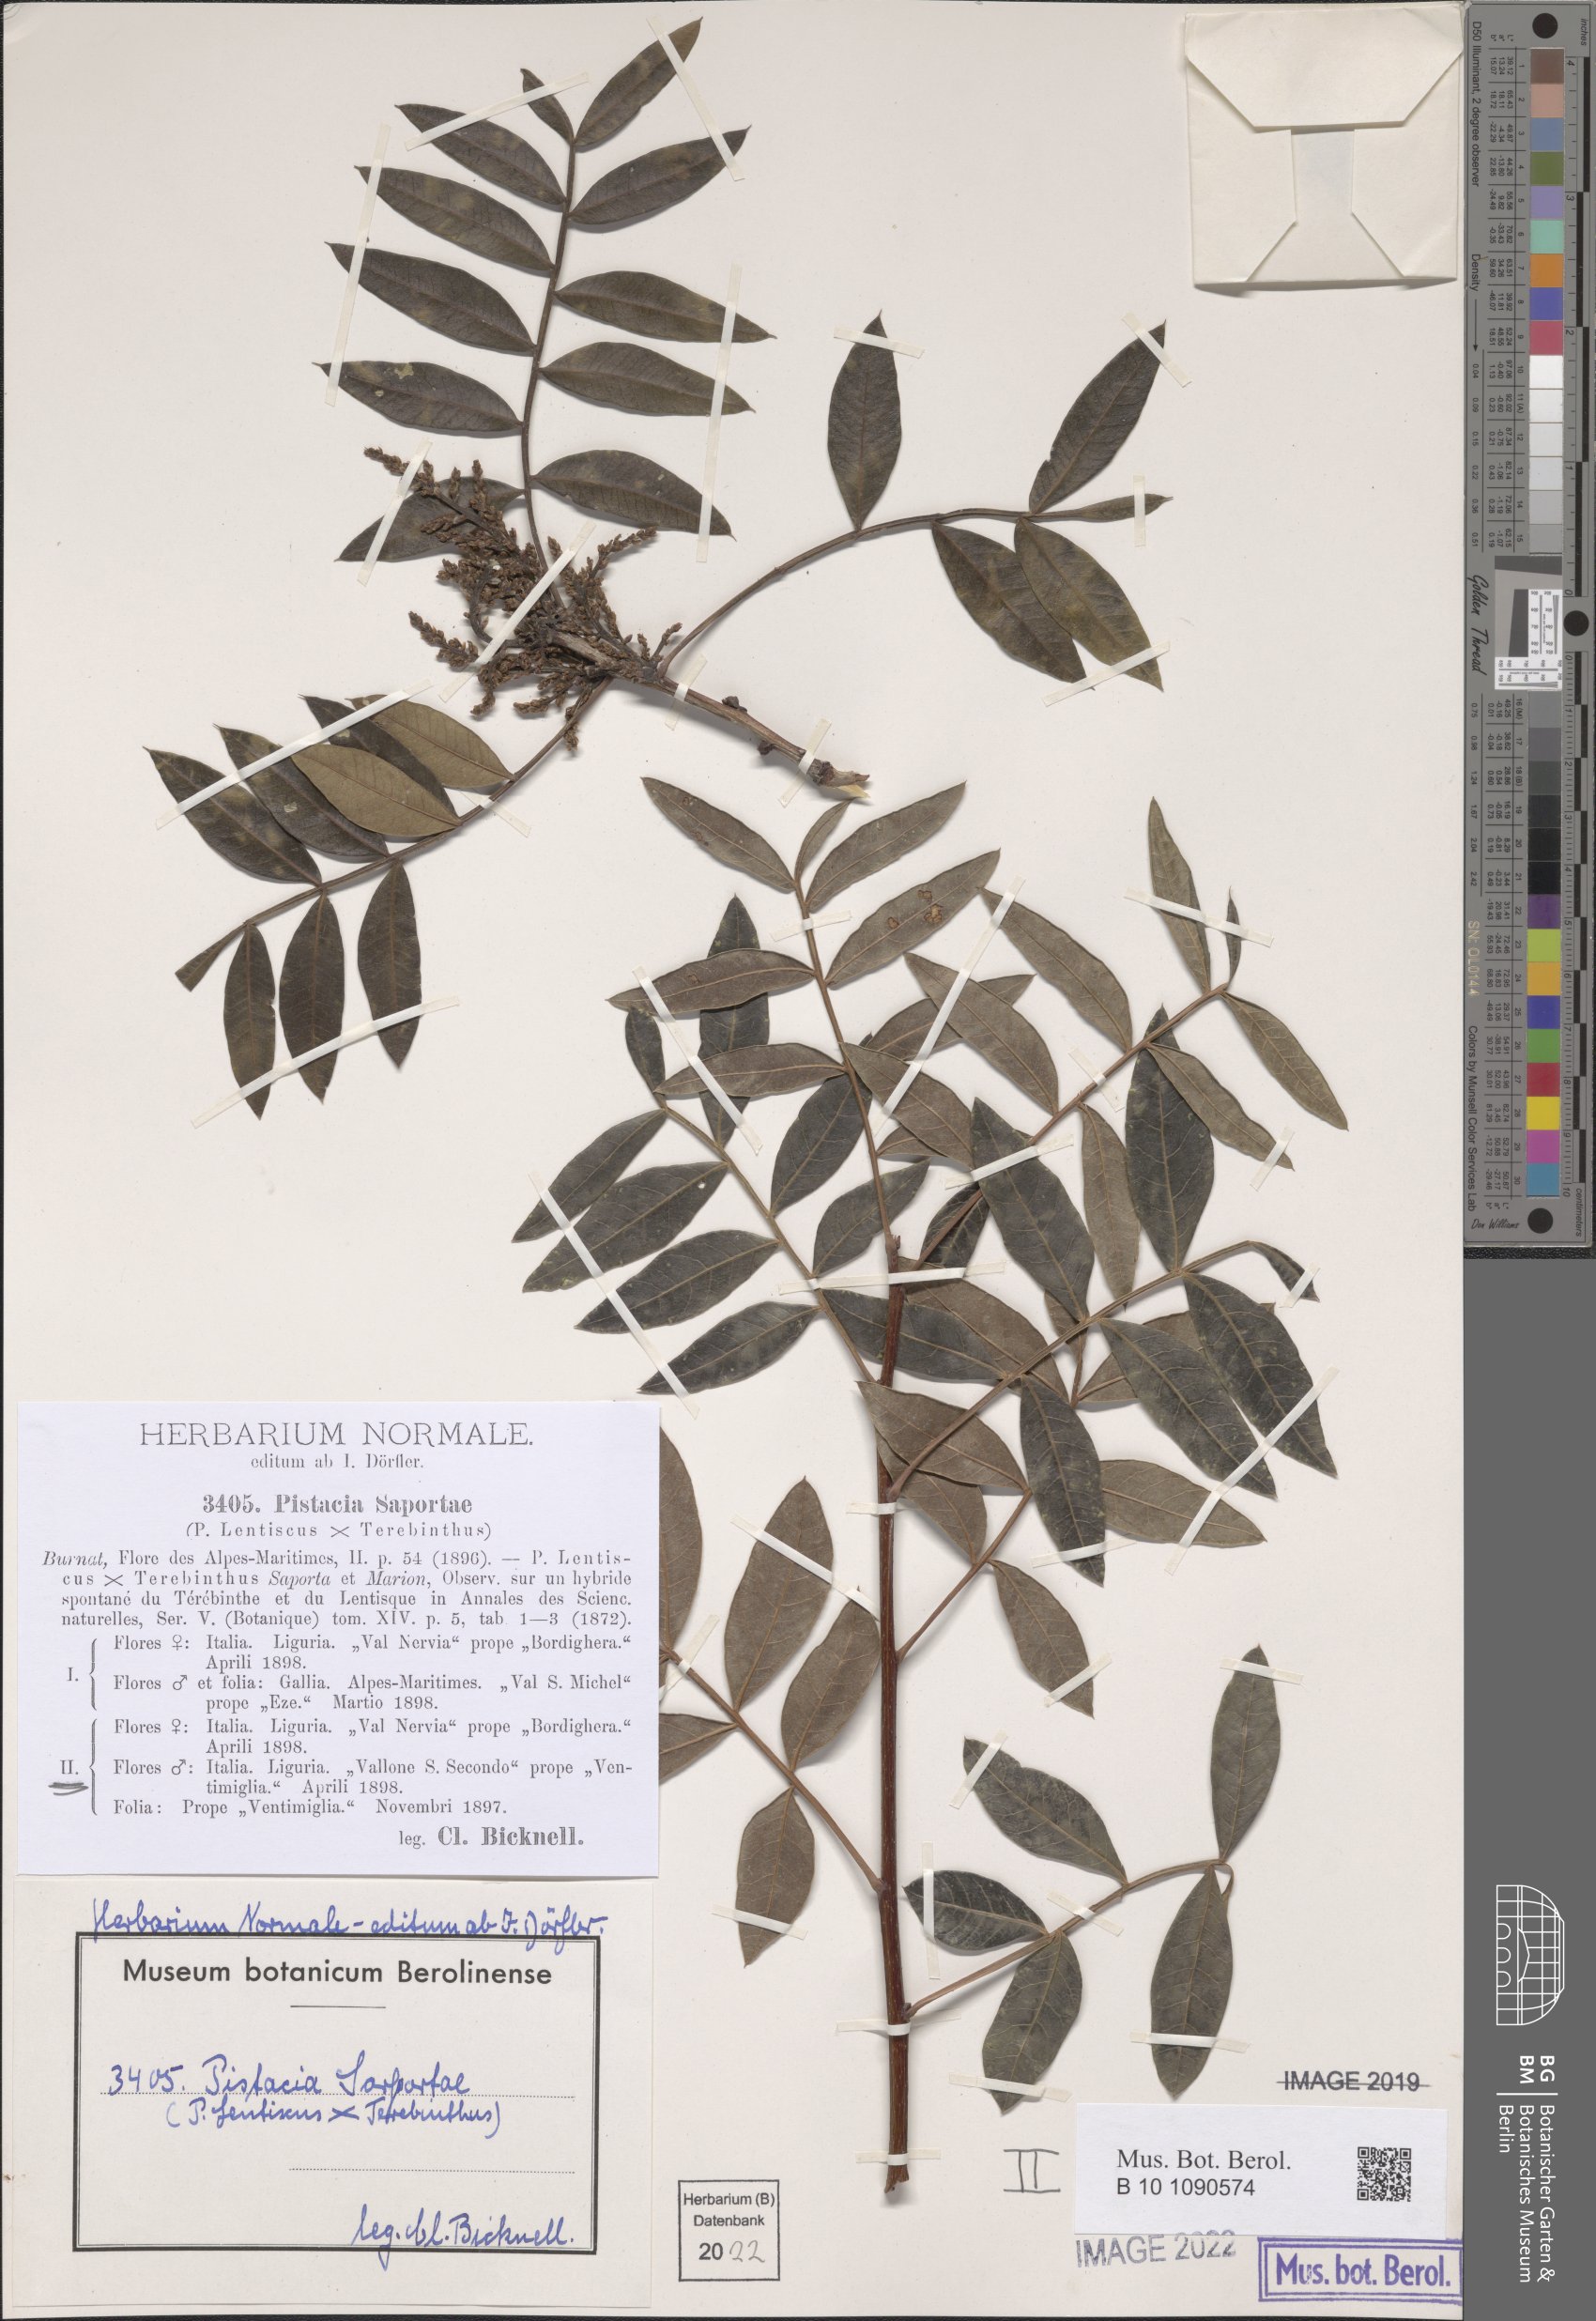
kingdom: Plantae
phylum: Tracheophyta
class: Magnoliopsida
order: Sapindales
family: Anacardiaceae
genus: Pistacia
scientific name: Pistacia saportae
